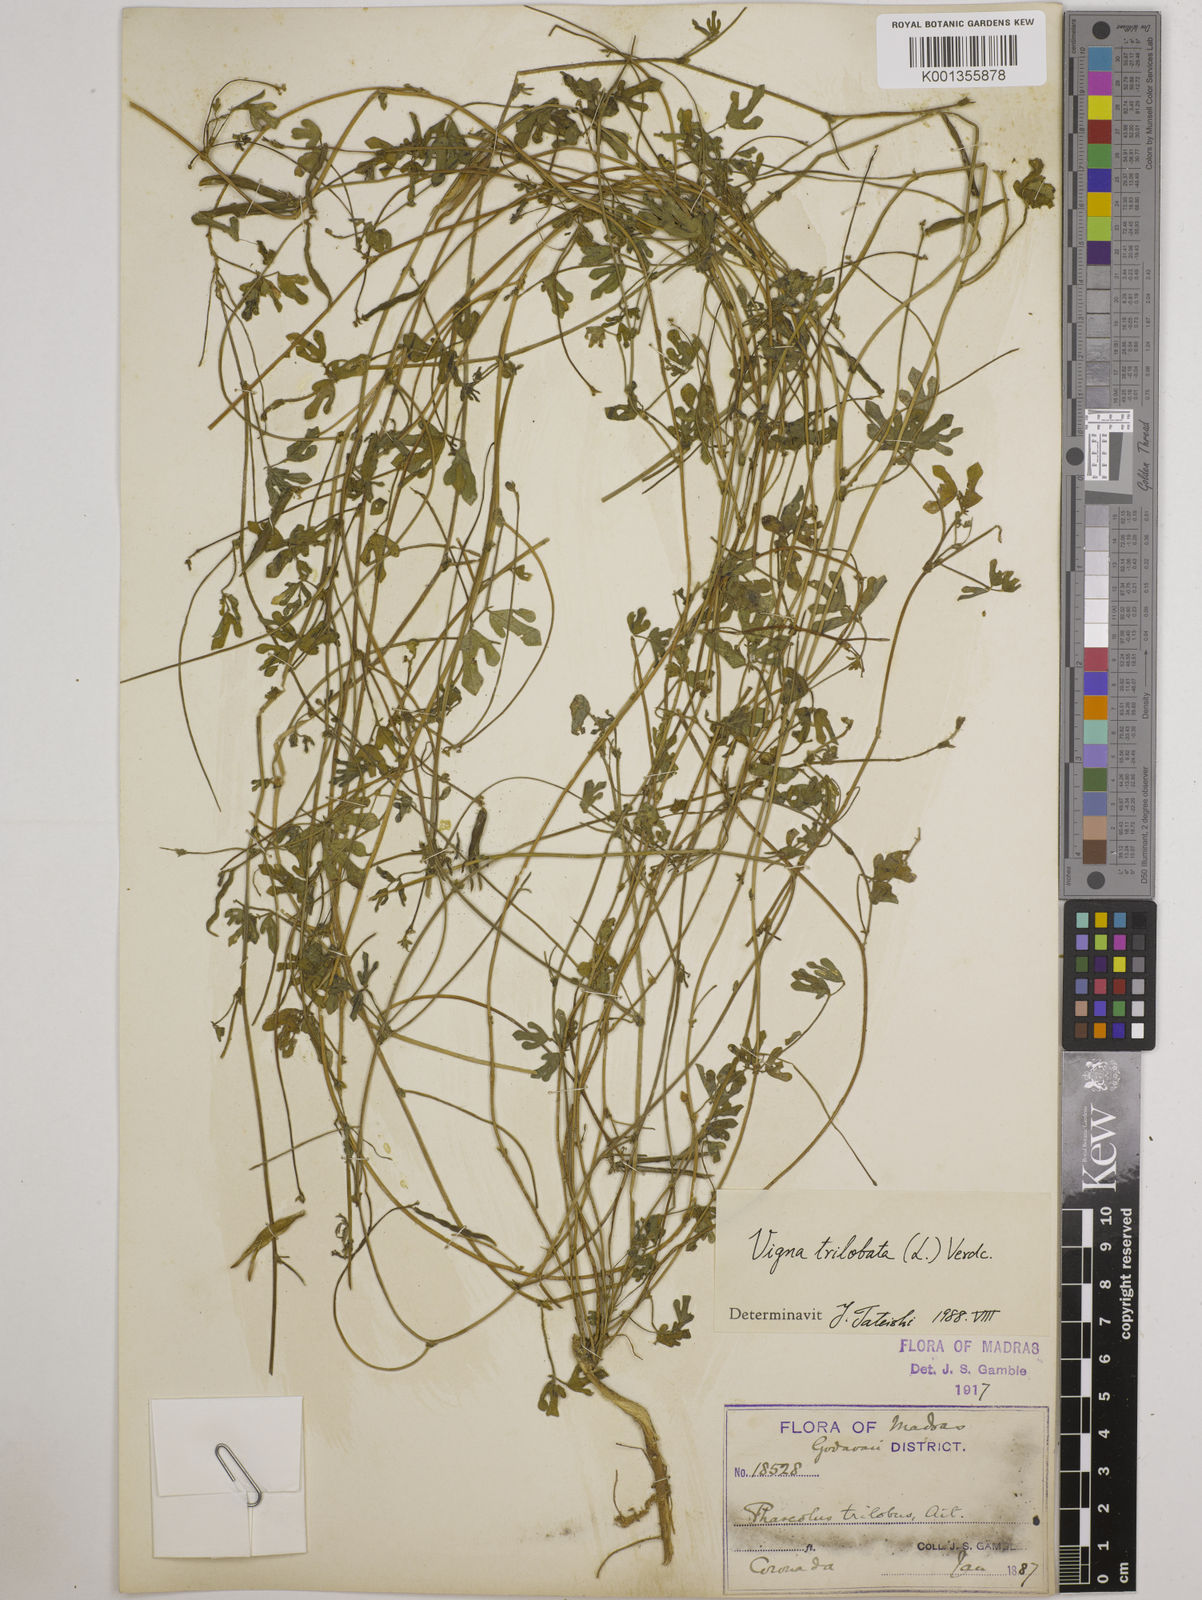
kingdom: Plantae
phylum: Tracheophyta
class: Magnoliopsida
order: Fabales
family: Fabaceae
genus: Vigna
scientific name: Vigna trilobata
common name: Jungli-bean
